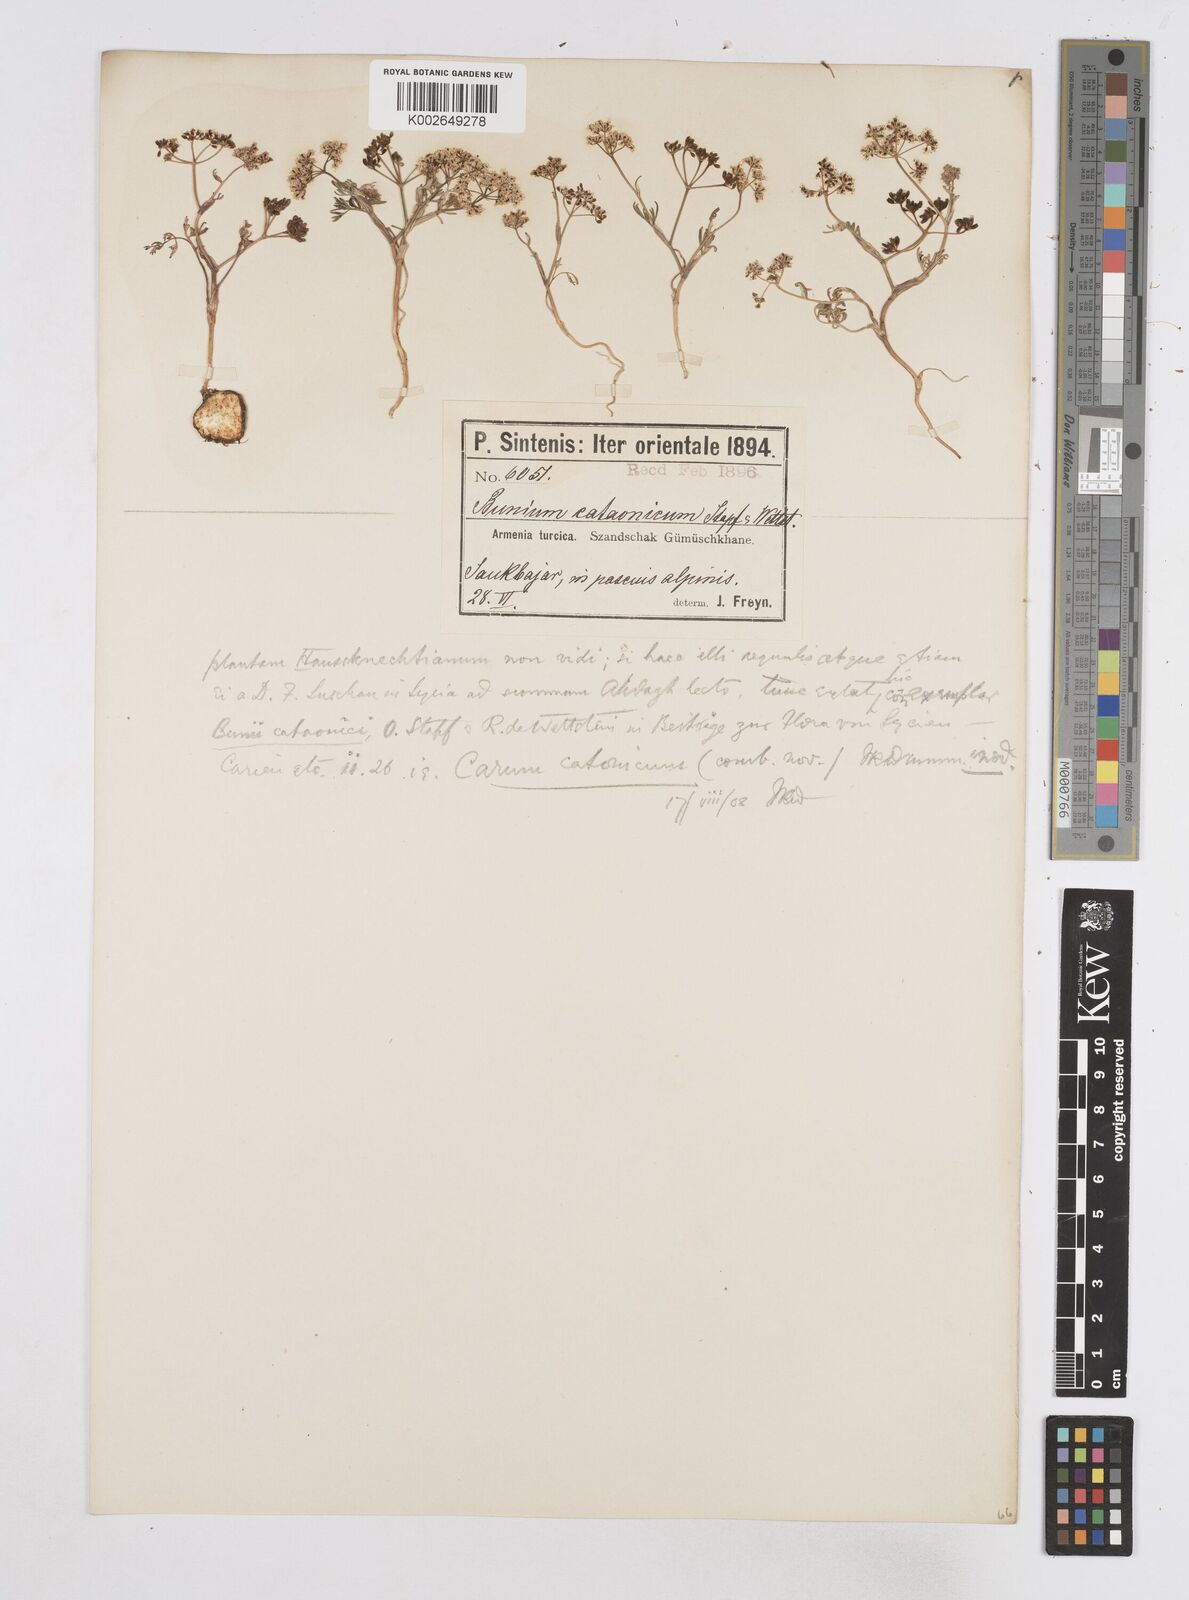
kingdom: Plantae
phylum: Tracheophyta
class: Magnoliopsida
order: Apiales
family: Apiaceae
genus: Bunium
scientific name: Bunium bourgaei
